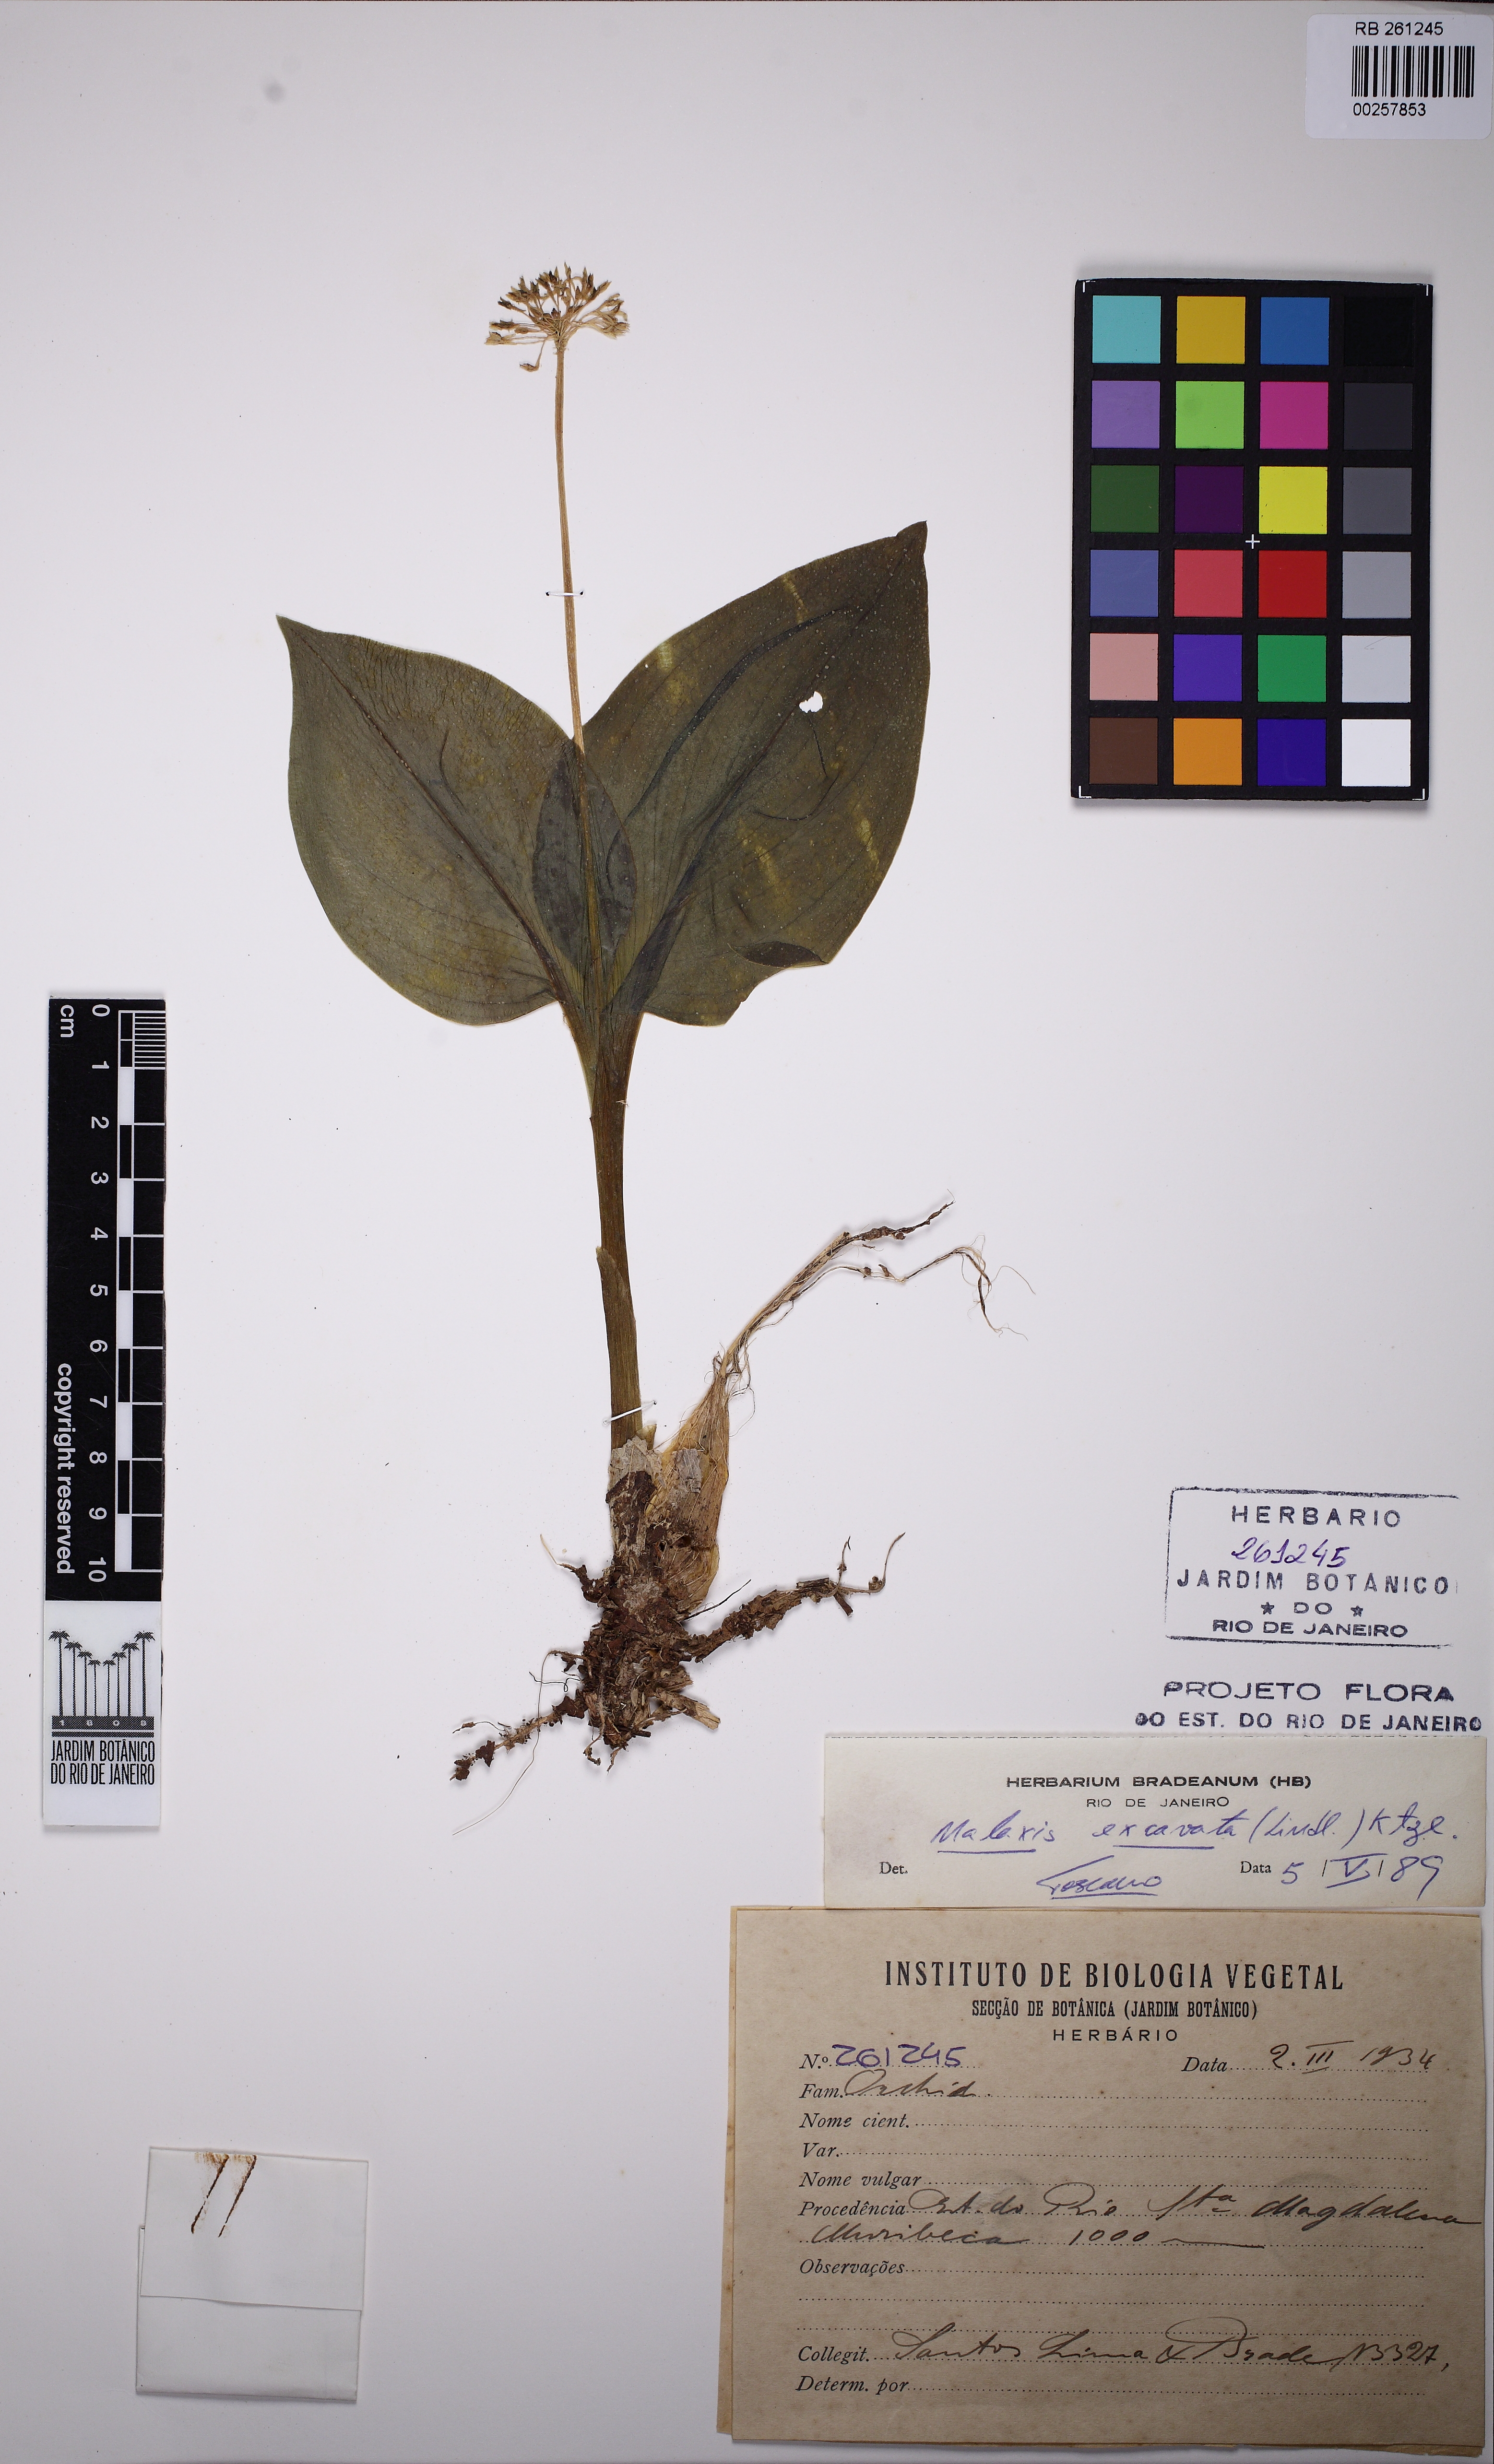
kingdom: Plantae
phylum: Tracheophyta
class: Liliopsida
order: Asparagales
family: Orchidaceae
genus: Malaxis
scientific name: Malaxis excavata
